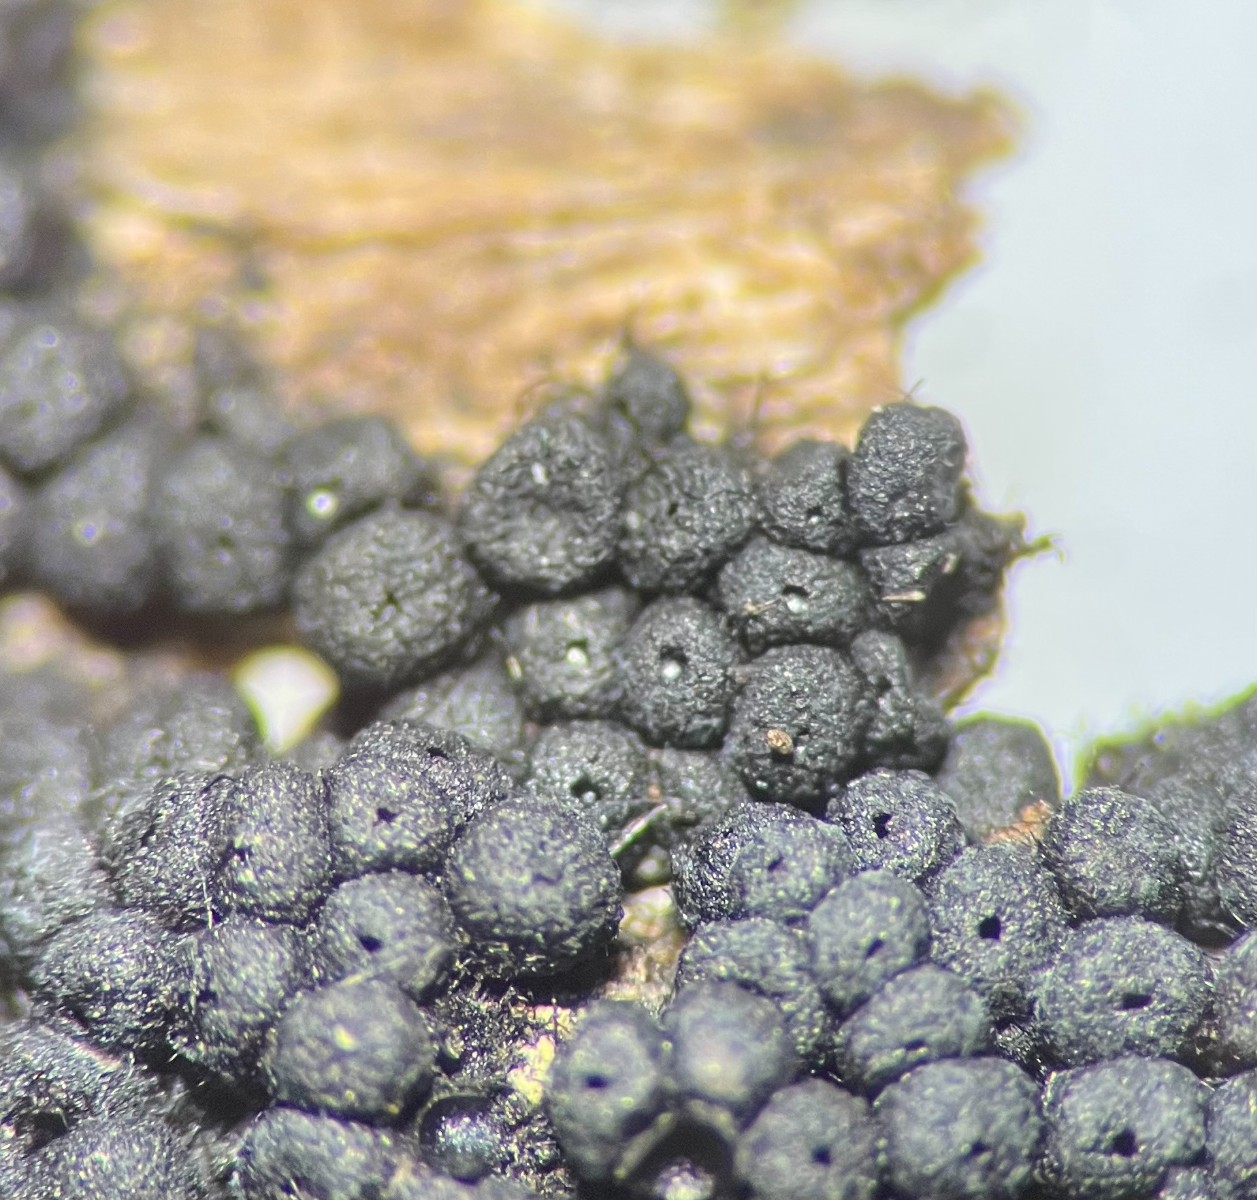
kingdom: Fungi
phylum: Ascomycota
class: Sordariomycetes
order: Coronophorales
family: Nitschkiaceae
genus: Nitschkia
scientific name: Nitschkia
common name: skålkerne
